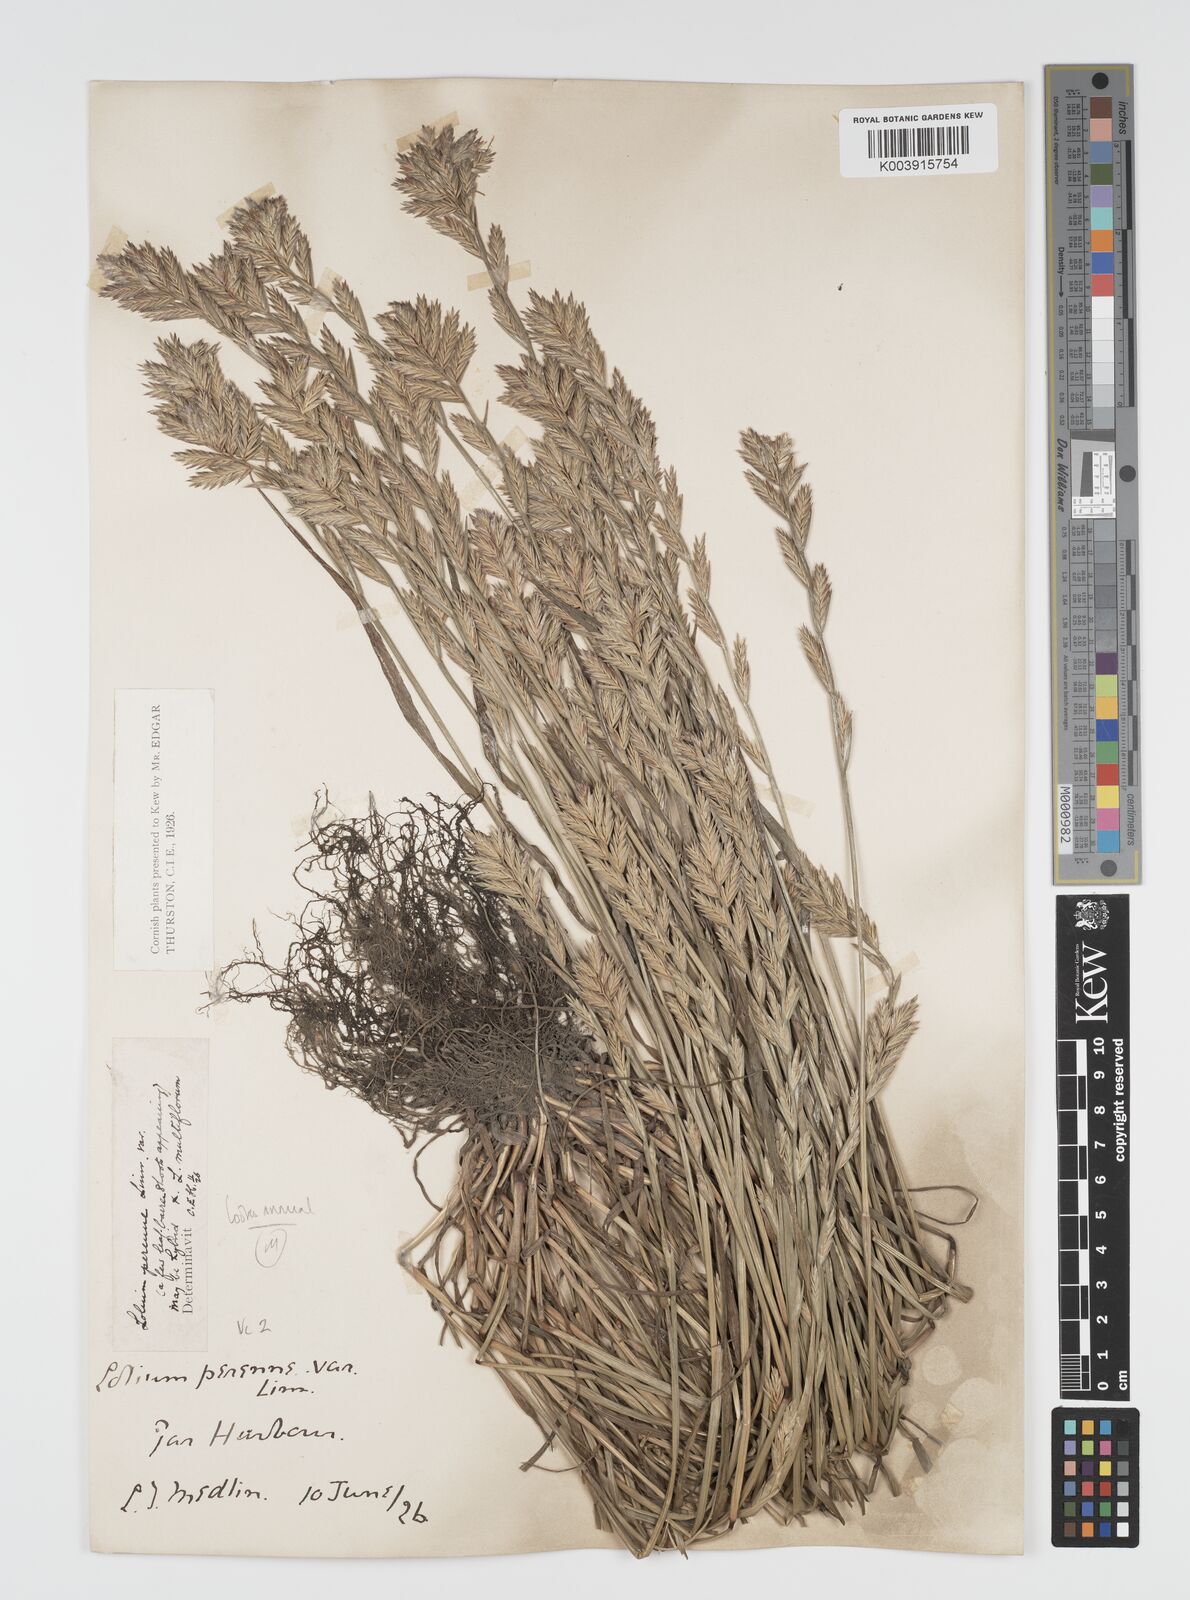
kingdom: Plantae
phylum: Tracheophyta
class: Liliopsida
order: Poales
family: Poaceae
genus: Lolium
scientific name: Lolium multiflorum
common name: Annual ryegrass
